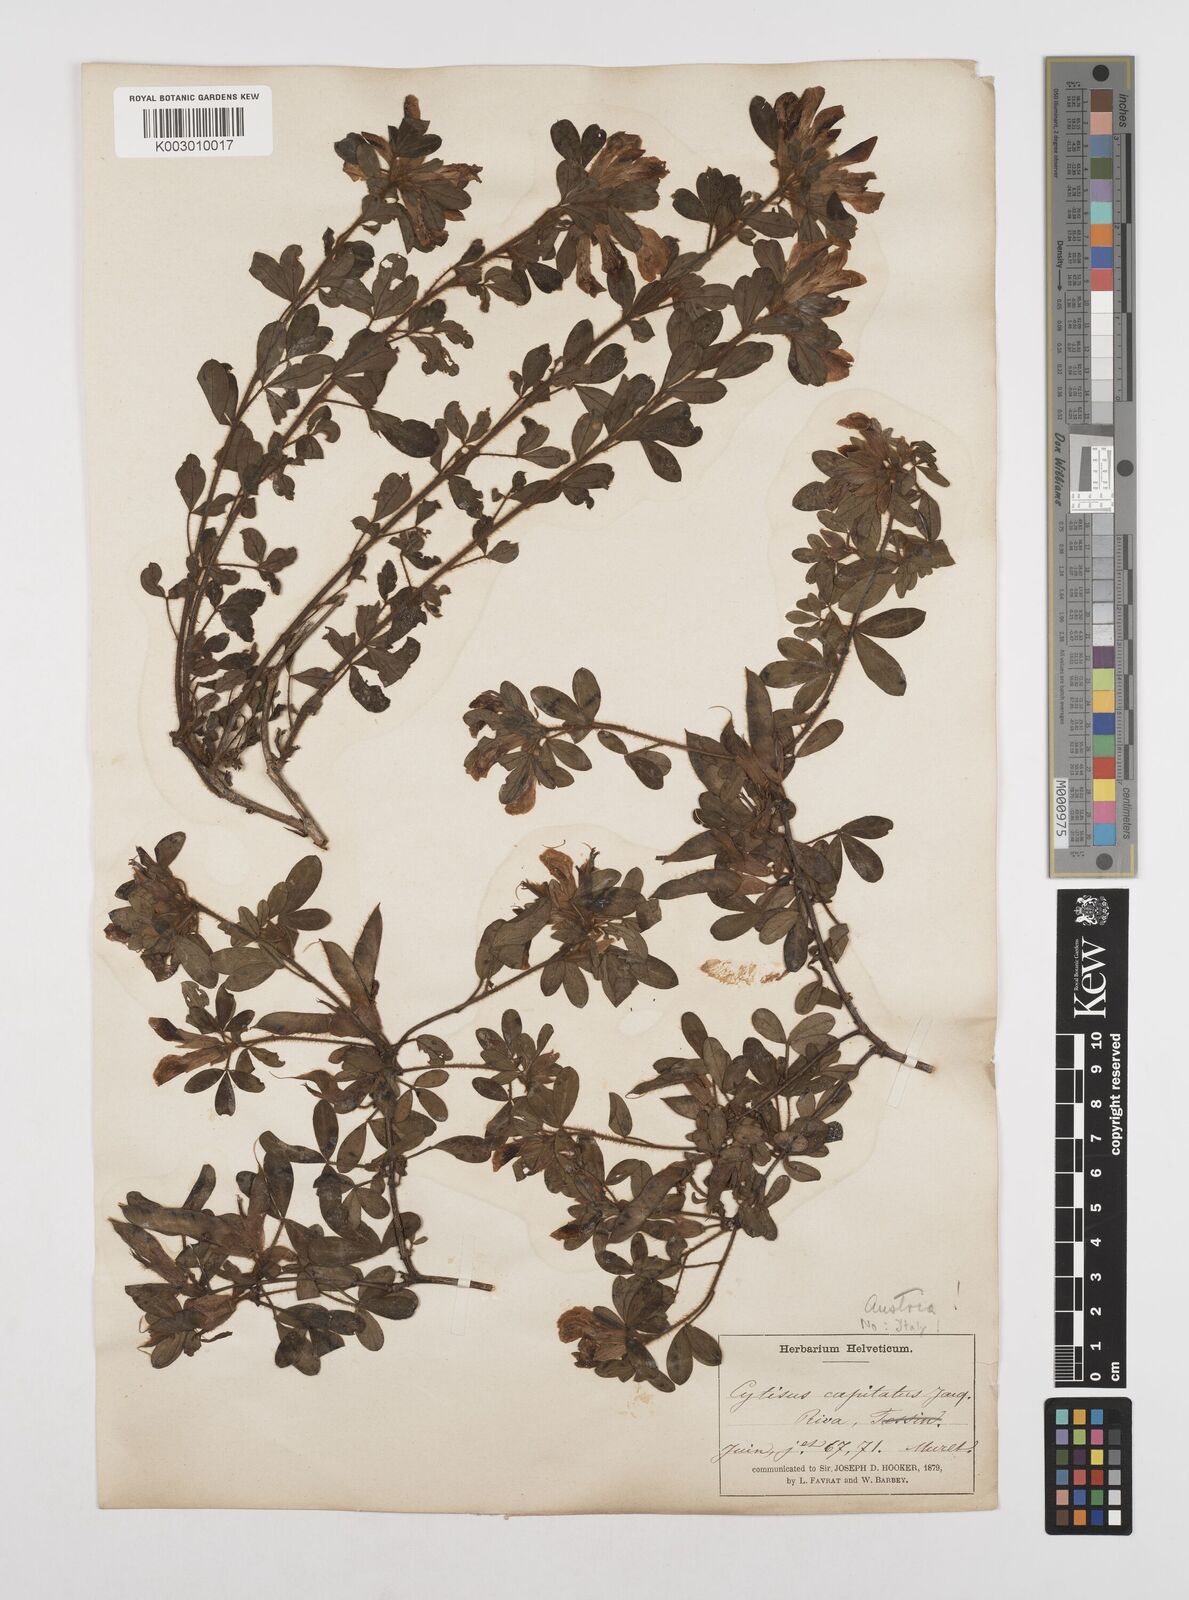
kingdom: Plantae
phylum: Tracheophyta
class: Magnoliopsida
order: Fabales
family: Fabaceae
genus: Chamaecytisus
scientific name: Chamaecytisus hirsutus
